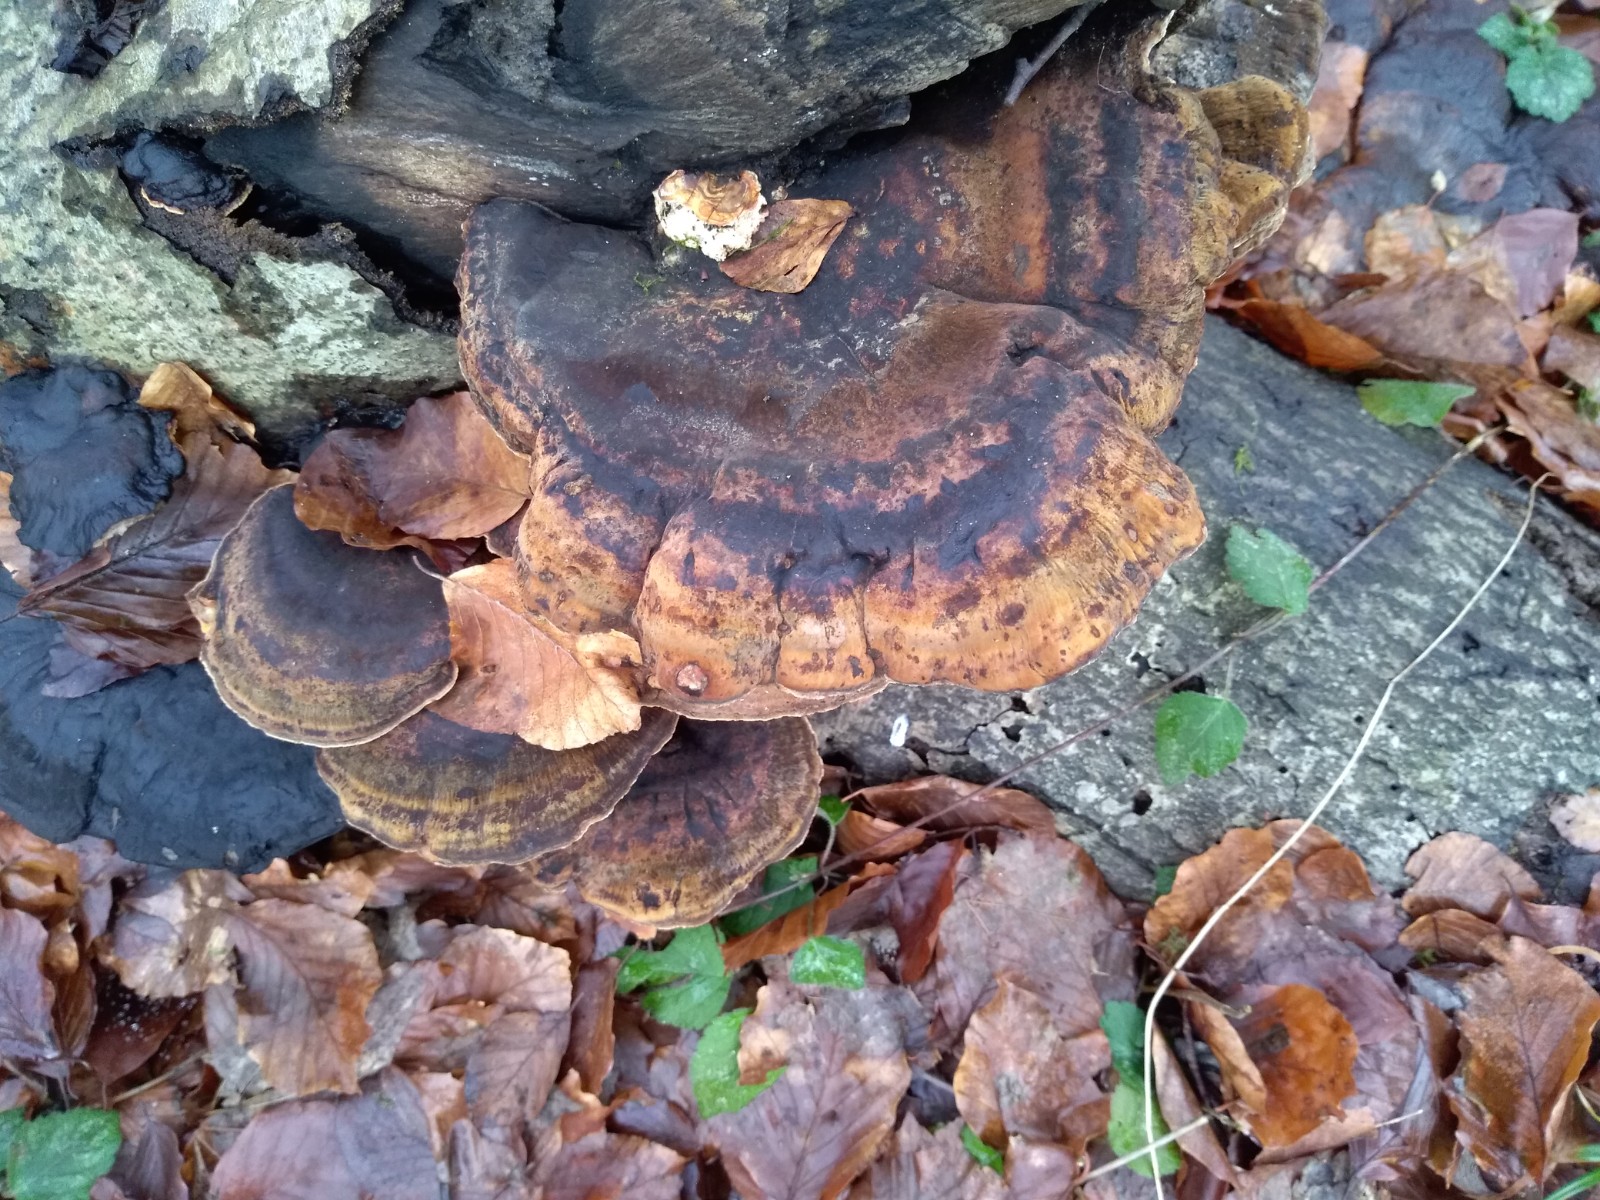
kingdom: Fungi
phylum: Basidiomycota
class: Agaricomycetes
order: Polyporales
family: Ischnodermataceae
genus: Ischnoderma
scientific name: Ischnoderma resinosum
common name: løv-tjæreporesvamp
